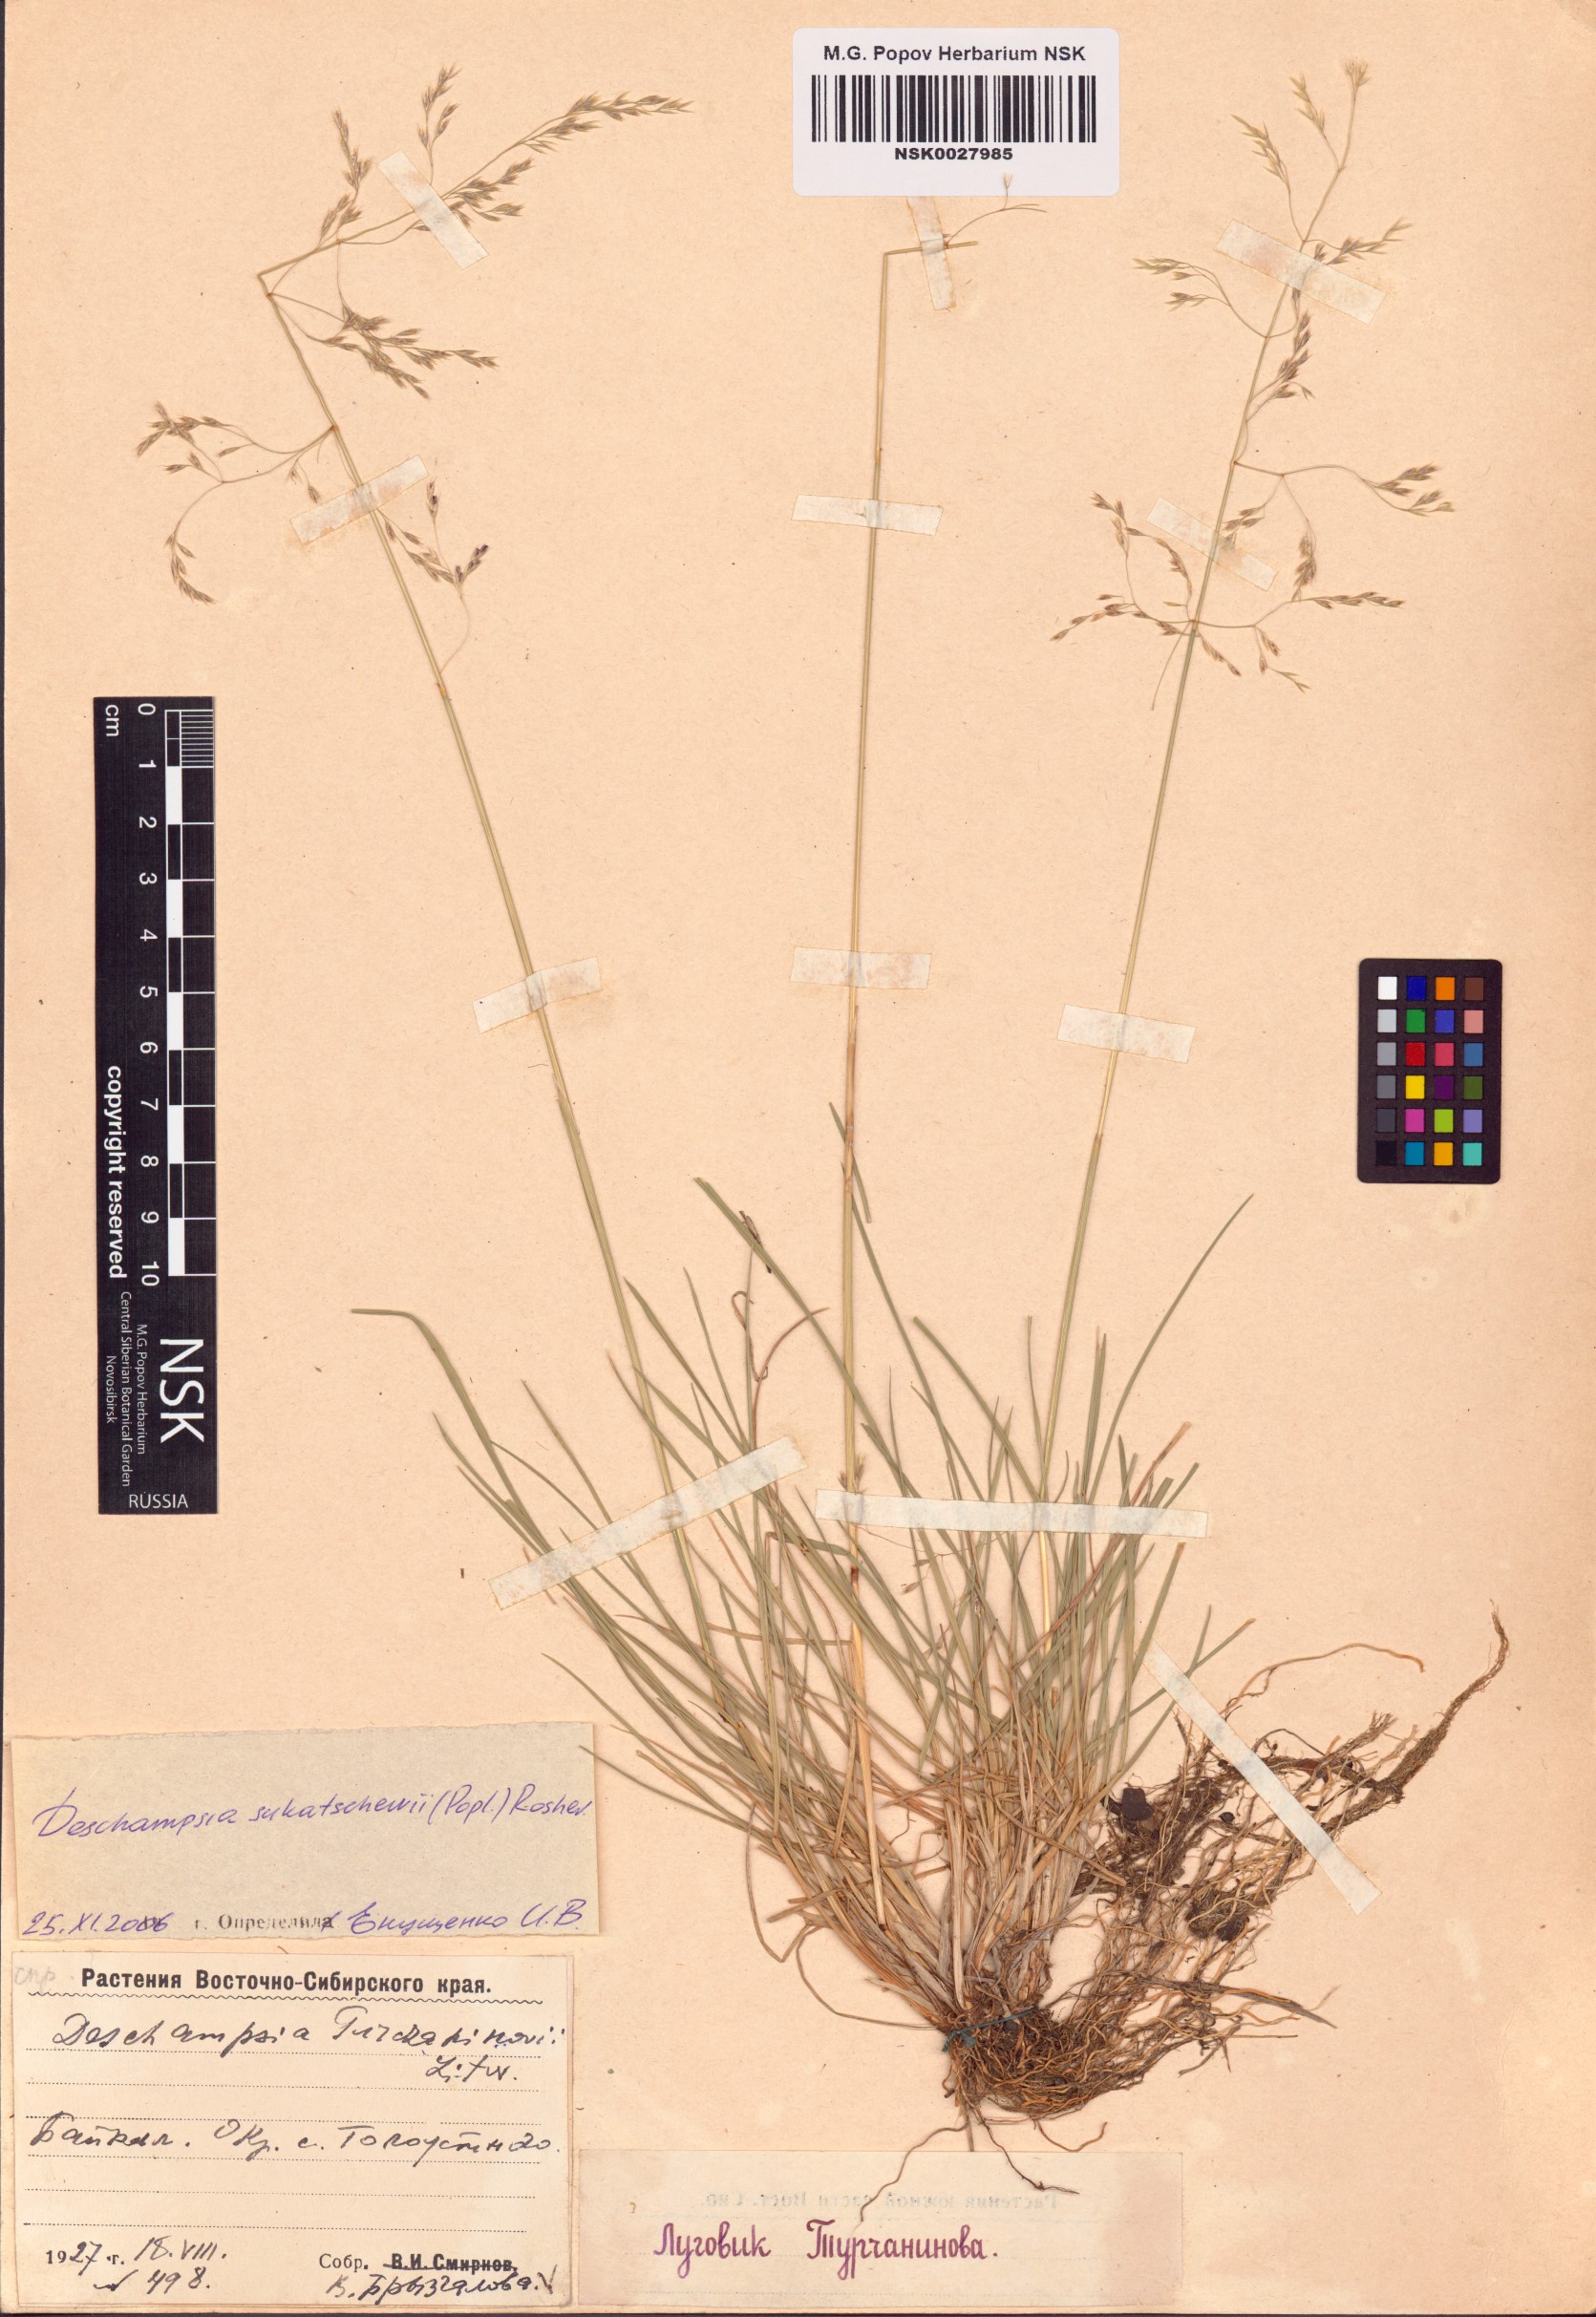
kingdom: Plantae
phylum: Tracheophyta
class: Liliopsida
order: Poales
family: Poaceae
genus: Deschampsia
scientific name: Deschampsia cespitosa
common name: Tufted hair-grass
